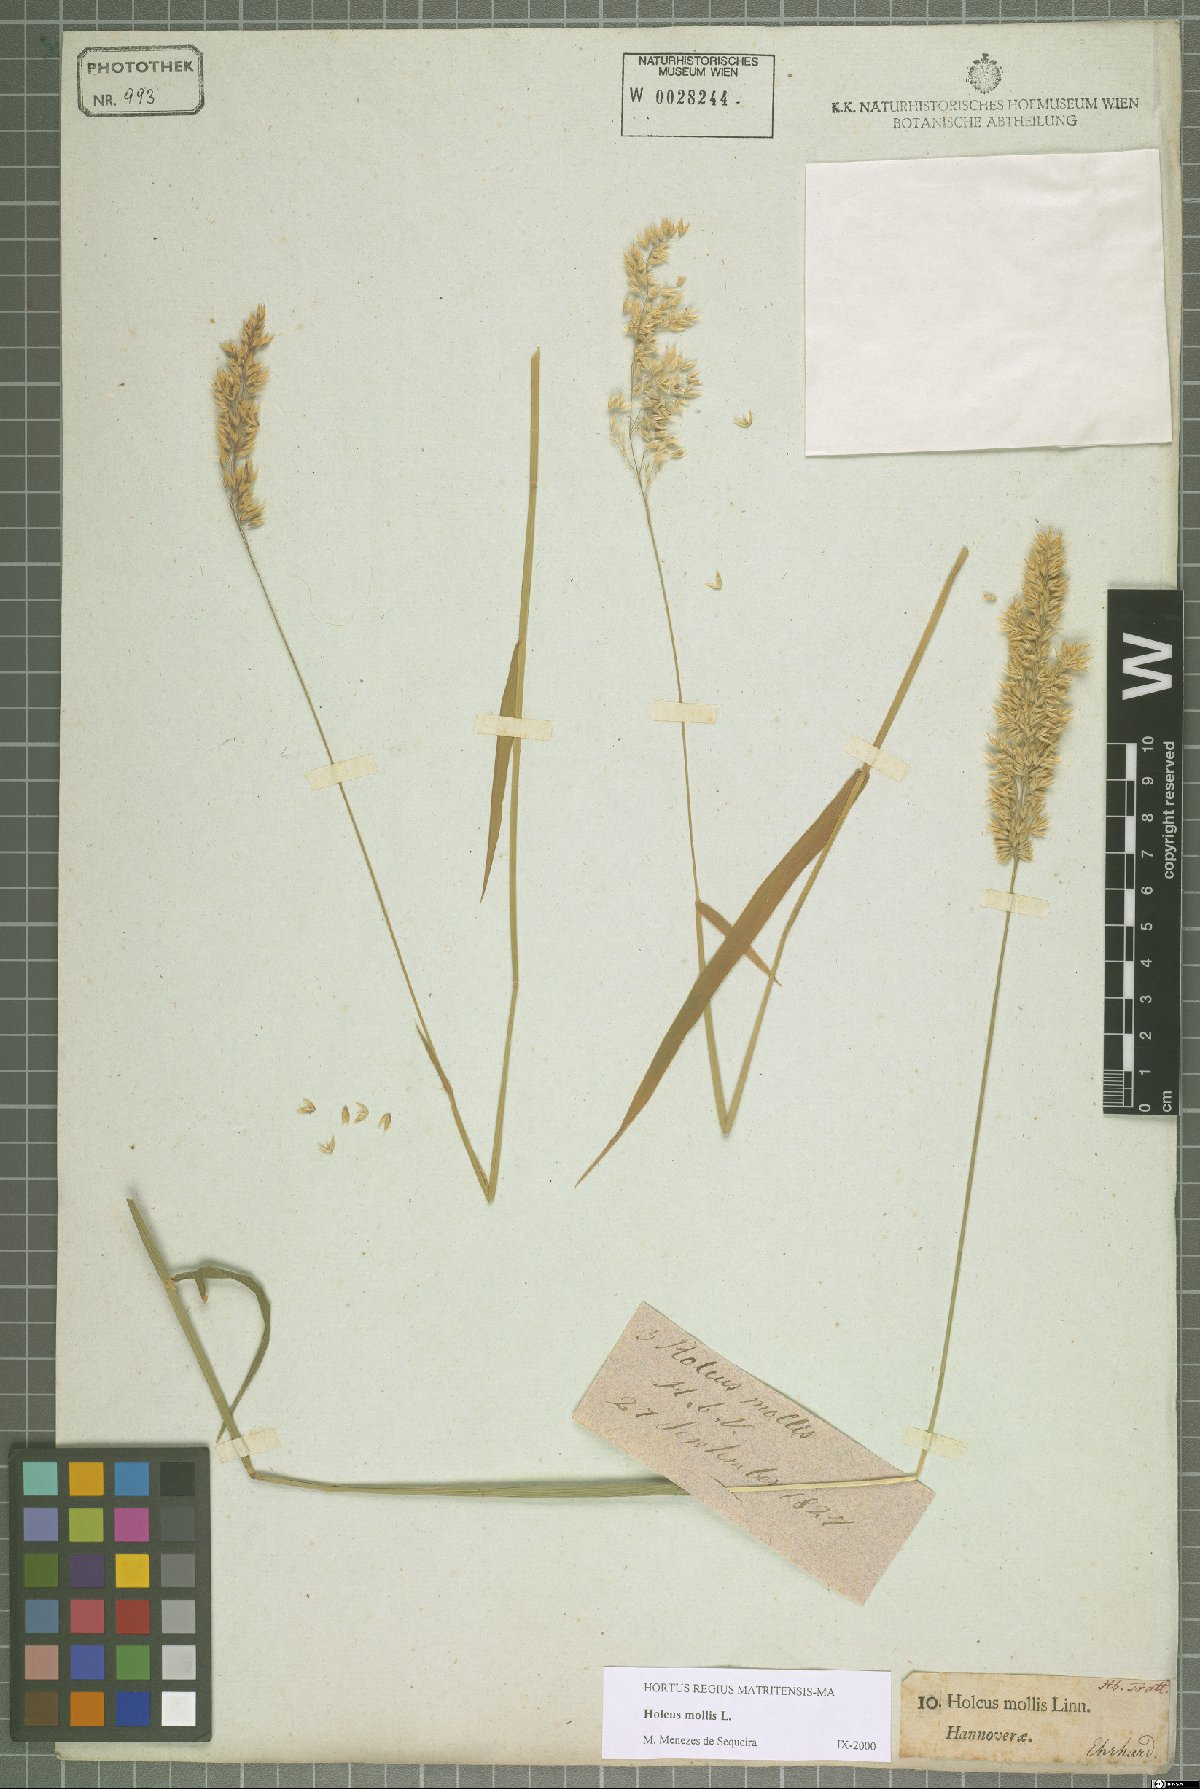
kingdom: Plantae
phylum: Tracheophyta
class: Liliopsida
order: Poales
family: Poaceae
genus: Holcus
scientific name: Holcus mollis
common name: Creeping velvetgrass
